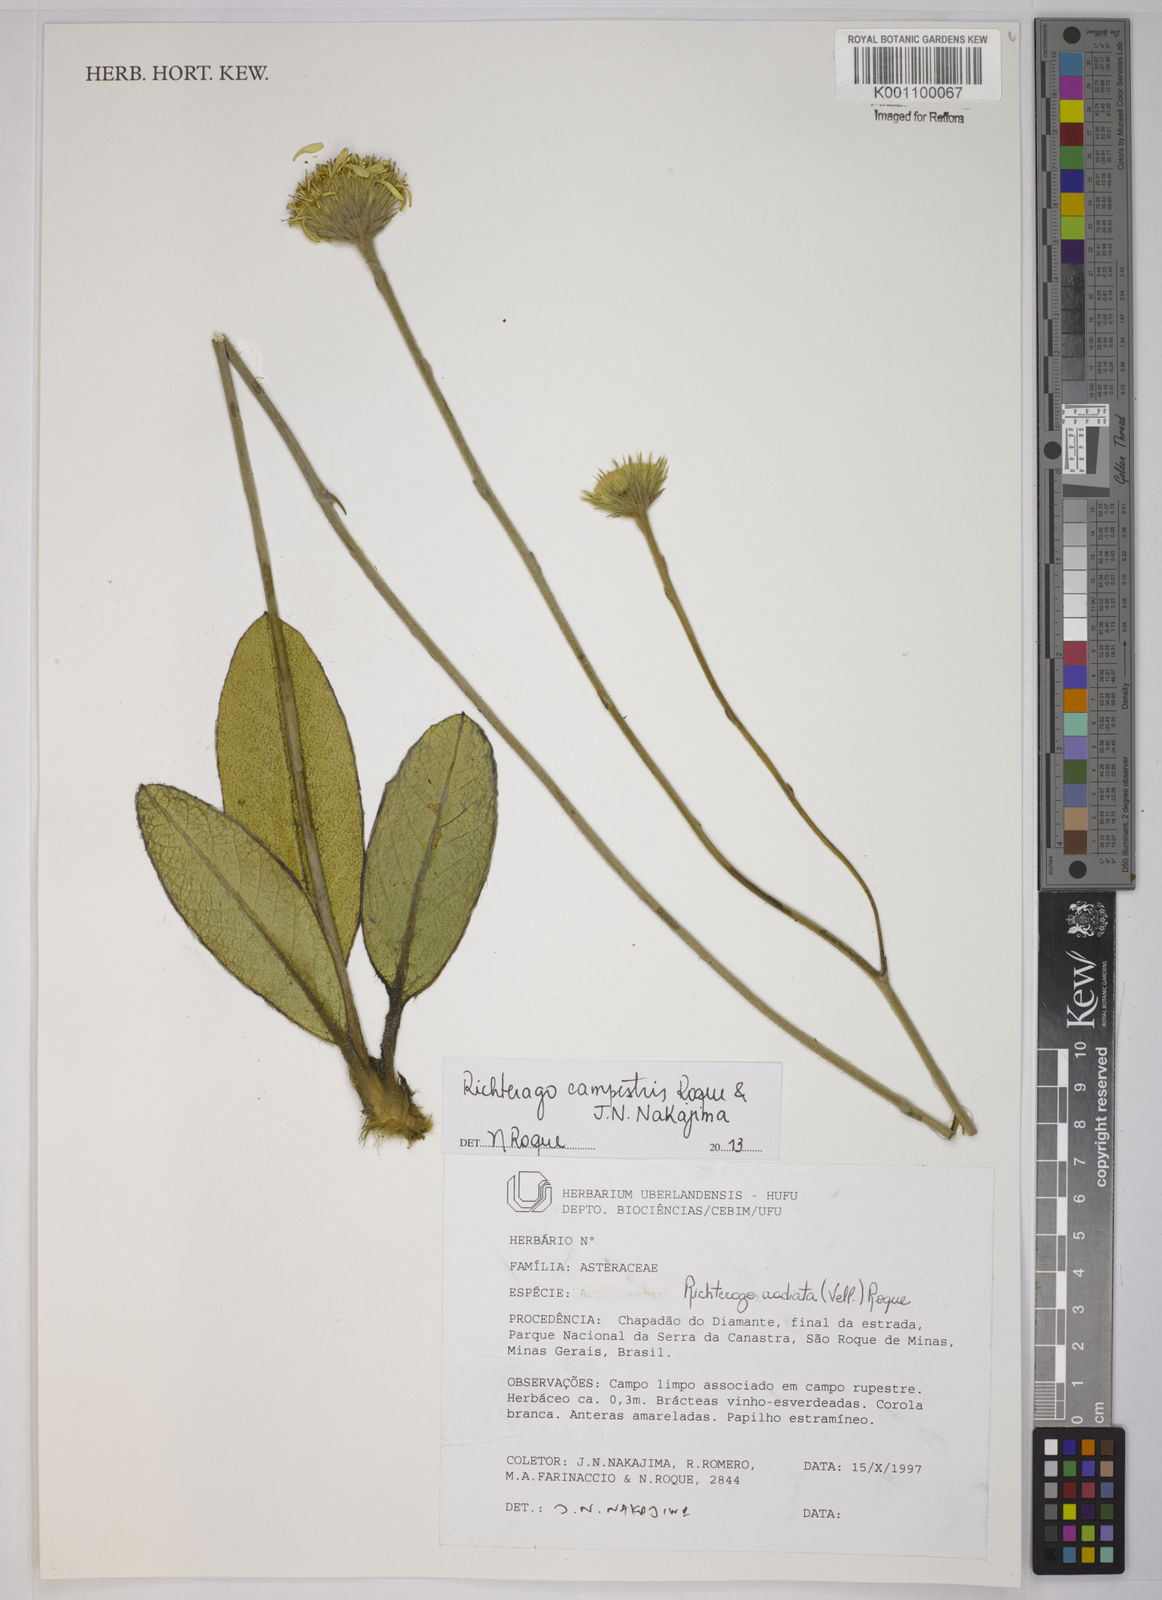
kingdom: Plantae
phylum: Tracheophyta
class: Magnoliopsida
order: Asterales
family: Asteraceae
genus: Richterago
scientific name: Richterago arenaria
